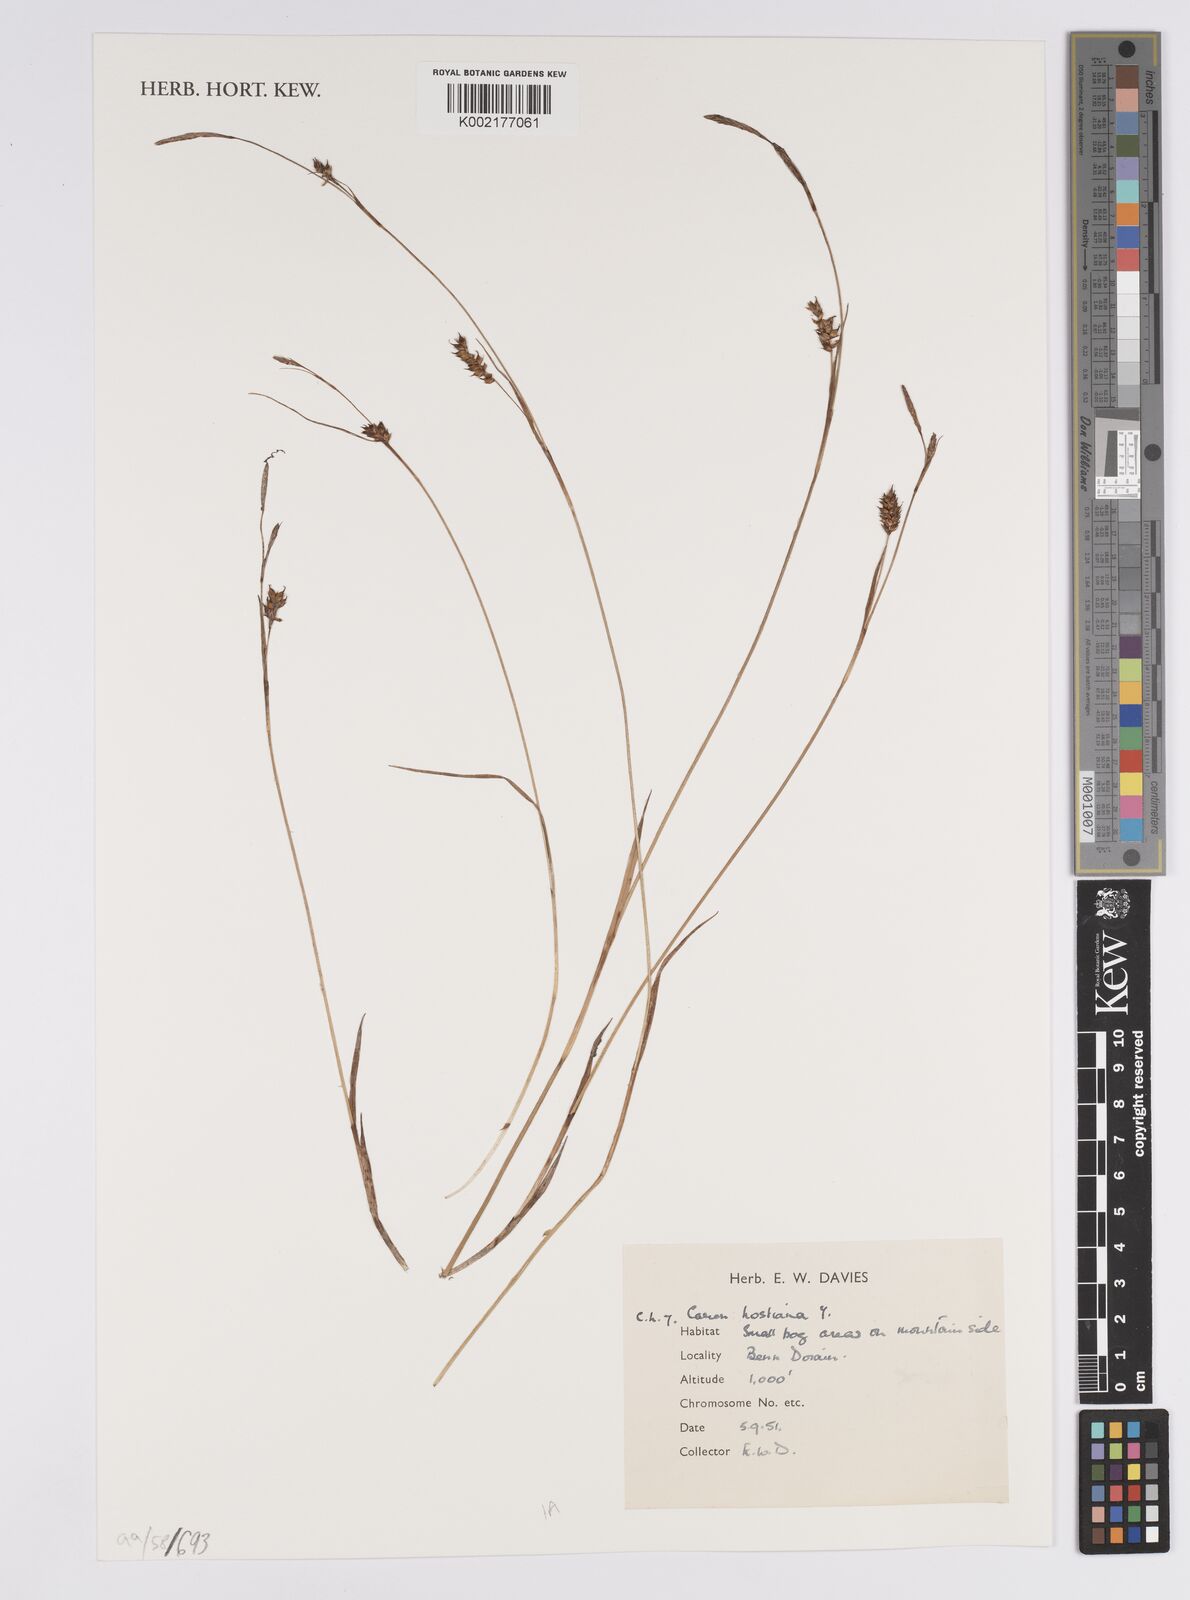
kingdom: Plantae
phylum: Tracheophyta
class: Liliopsida
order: Poales
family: Cyperaceae
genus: Carex
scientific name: Carex hostiana
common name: Tawny sedge
